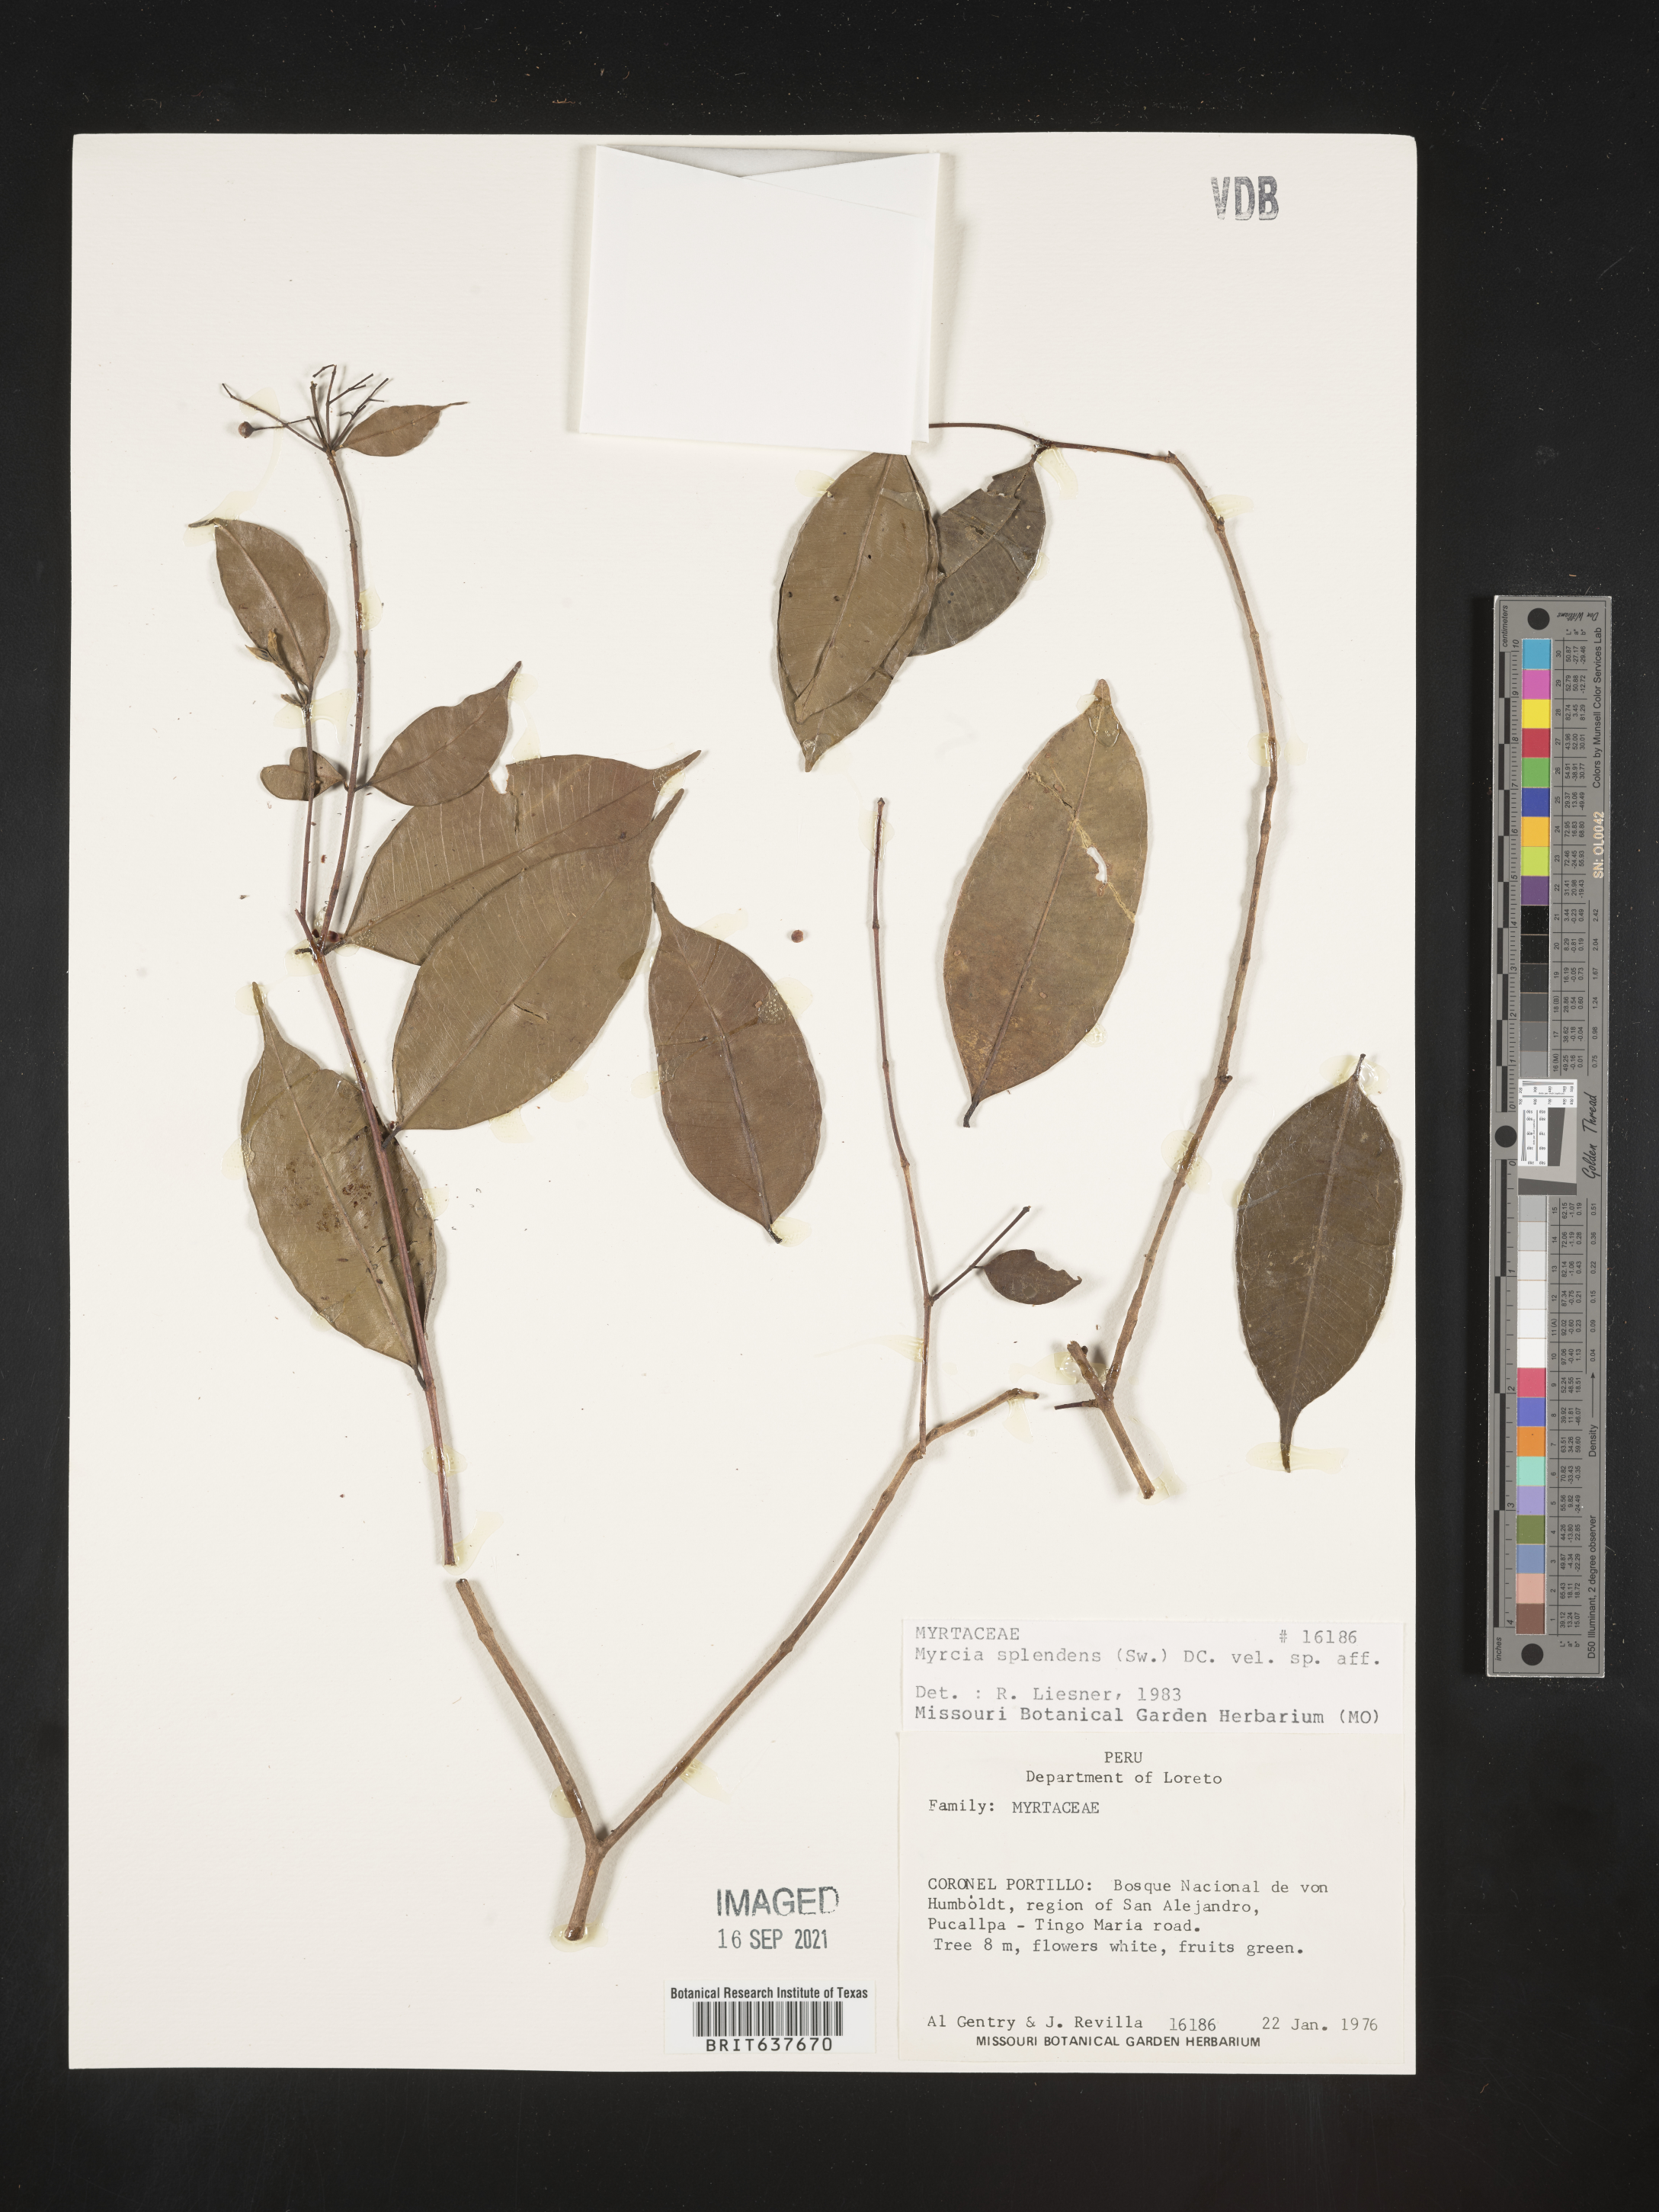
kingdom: Plantae
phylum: Tracheophyta
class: Magnoliopsida
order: Myrtales
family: Myrtaceae
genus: Myrcia
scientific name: Myrcia
